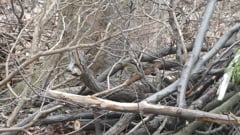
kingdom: Animalia
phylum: Chordata
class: Aves
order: Passeriformes
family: Muscicapidae
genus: Erithacus
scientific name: Erithacus rubecula
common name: European robin
